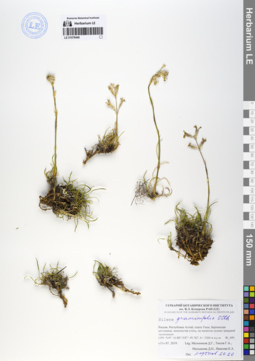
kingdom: Plantae
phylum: Tracheophyta
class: Magnoliopsida
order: Caryophyllales
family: Caryophyllaceae
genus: Silene
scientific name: Silene graminifolia
